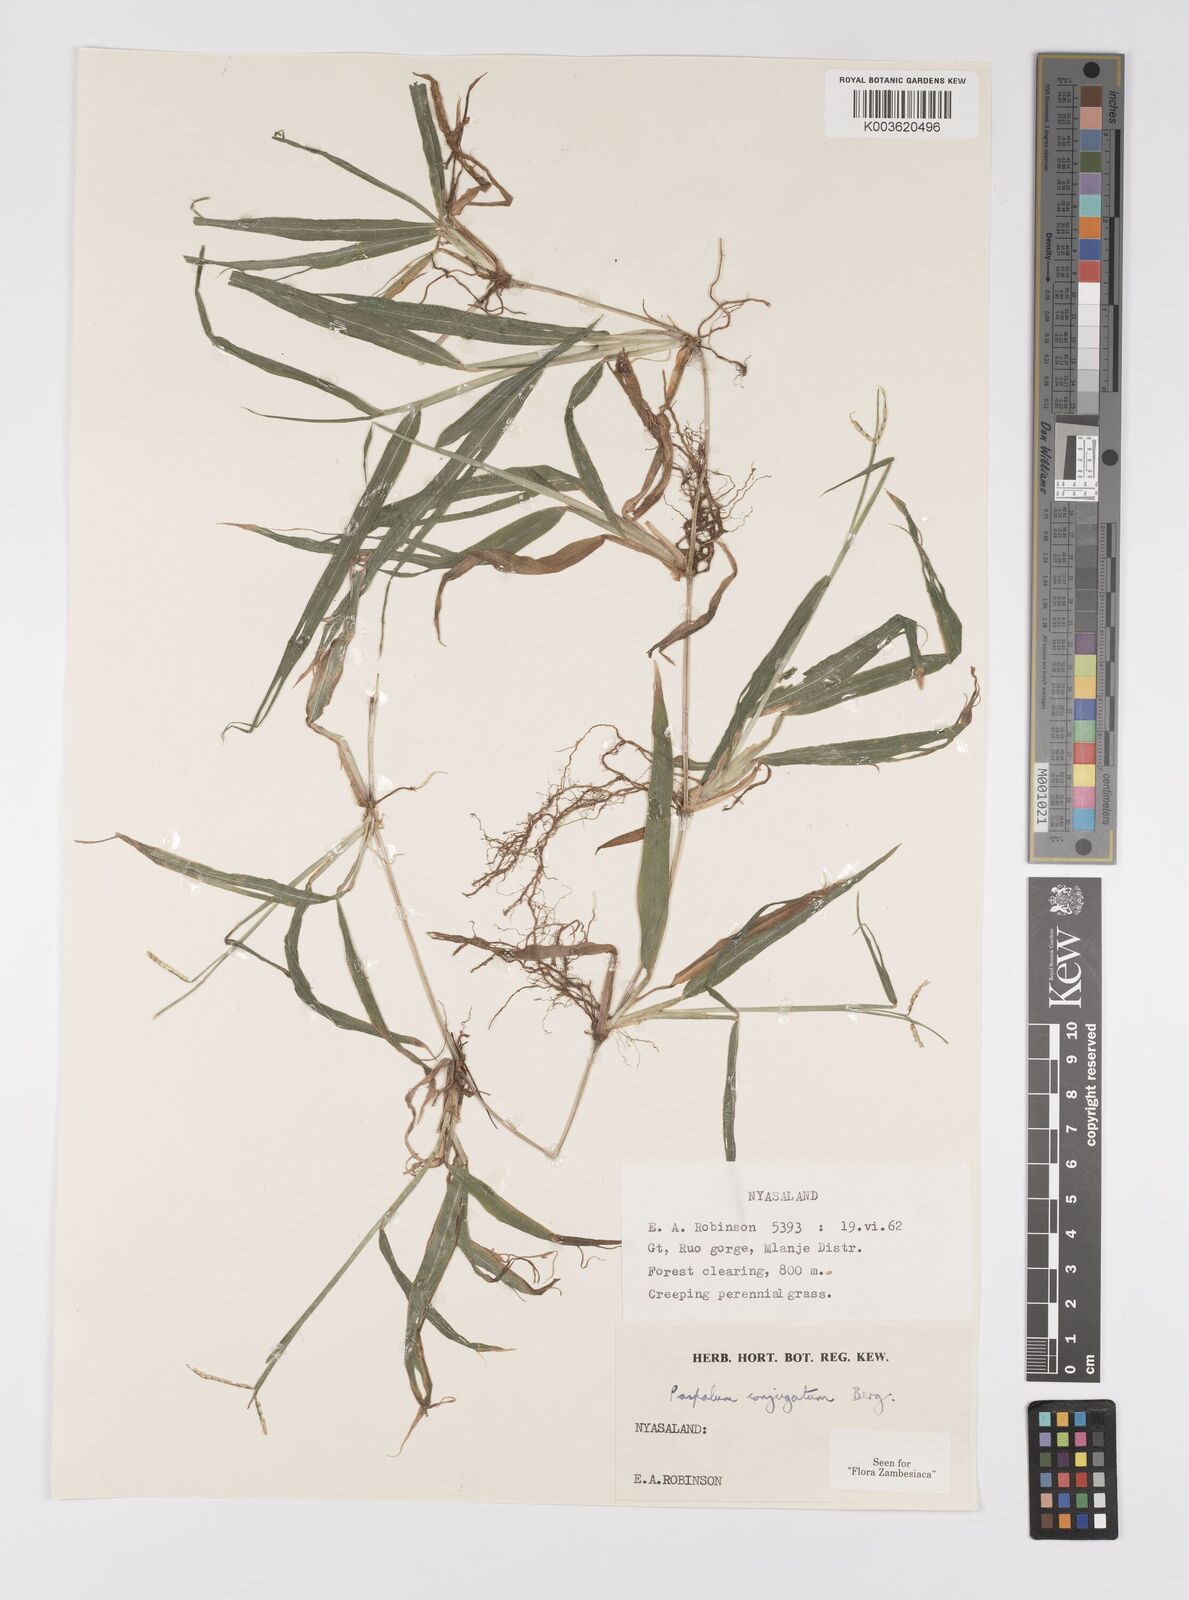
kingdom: Plantae
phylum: Tracheophyta
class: Liliopsida
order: Poales
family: Poaceae
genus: Paspalum
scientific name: Paspalum conjugatum
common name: Hilograss
